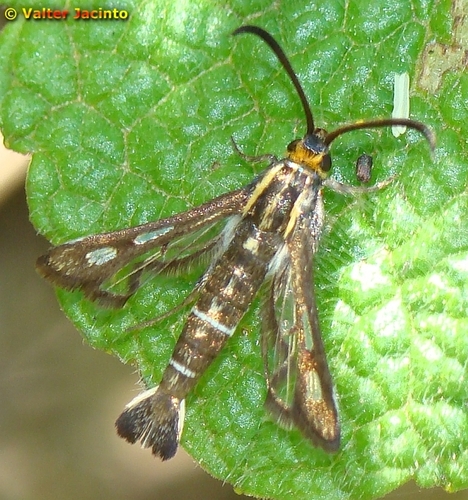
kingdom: Animalia
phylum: Arthropoda
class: Insecta
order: Lepidoptera
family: Sesiidae
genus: Pyropteron
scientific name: Pyropteron affine
